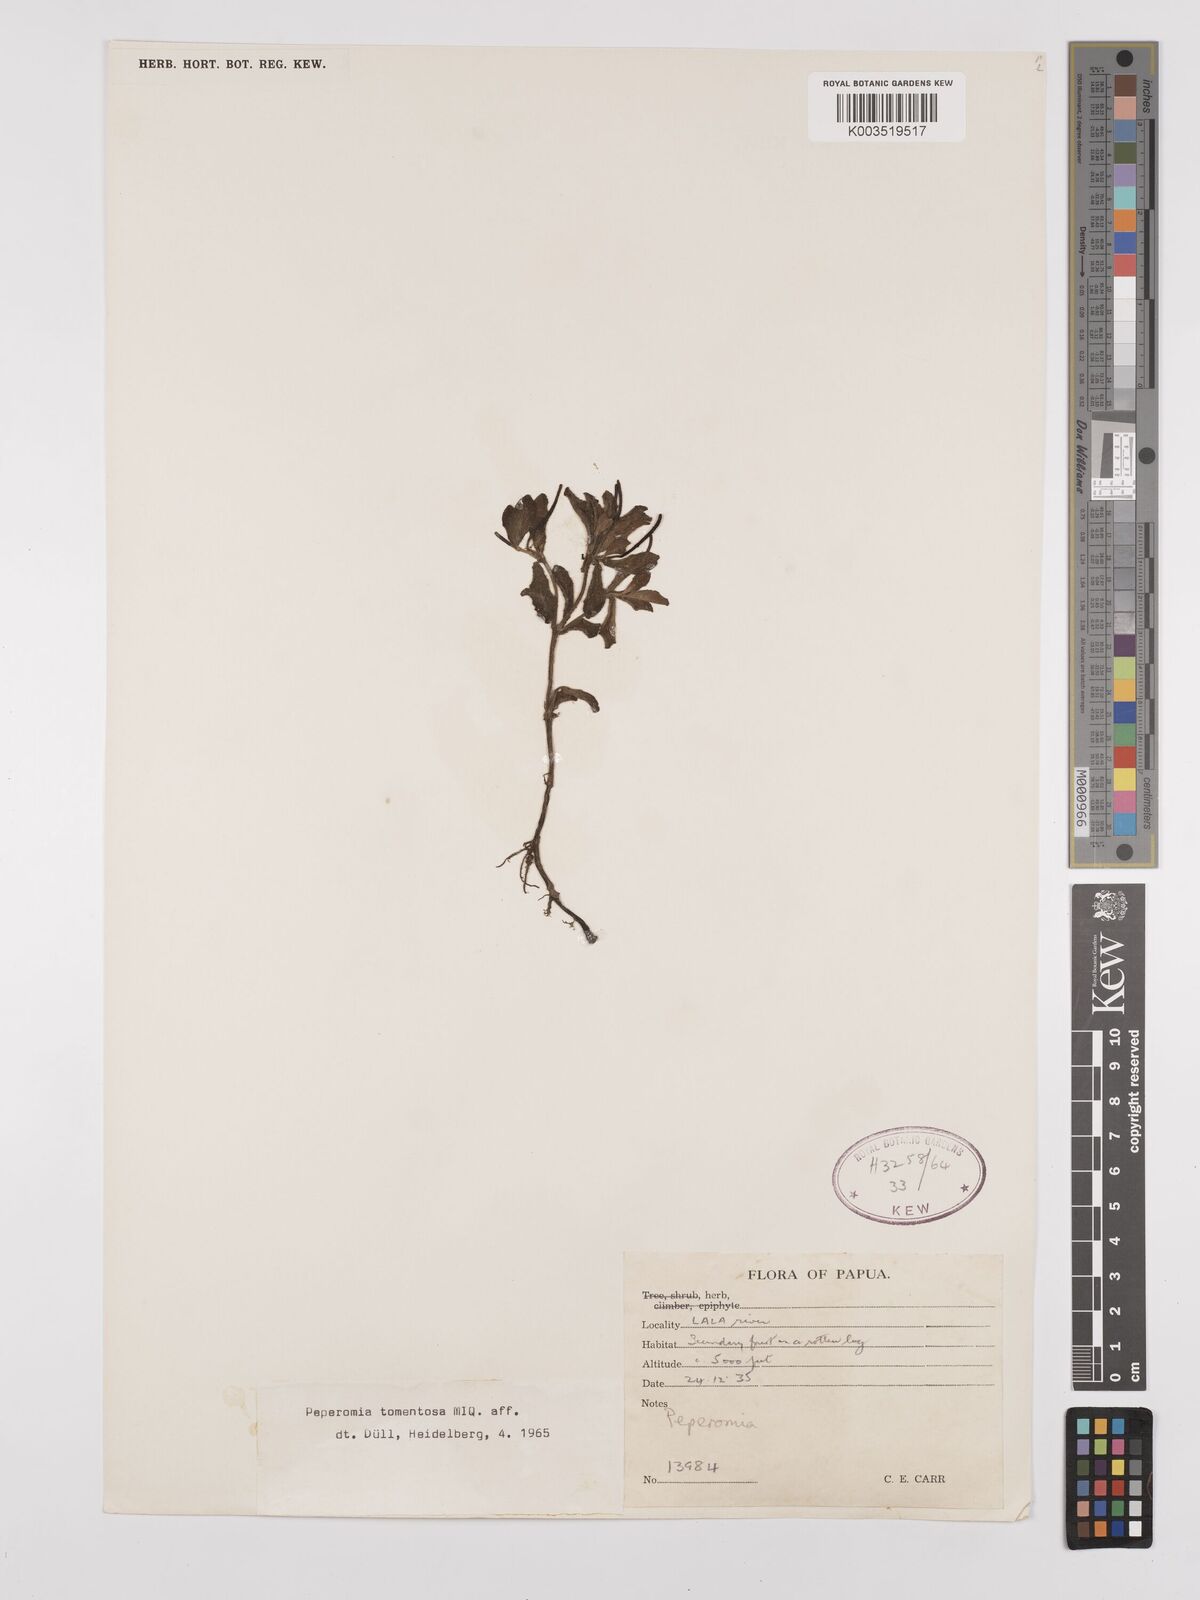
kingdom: Plantae
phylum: Tracheophyta
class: Magnoliopsida
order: Piperales
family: Piperaceae
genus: Peperomia
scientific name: Peperomia tomentosa
